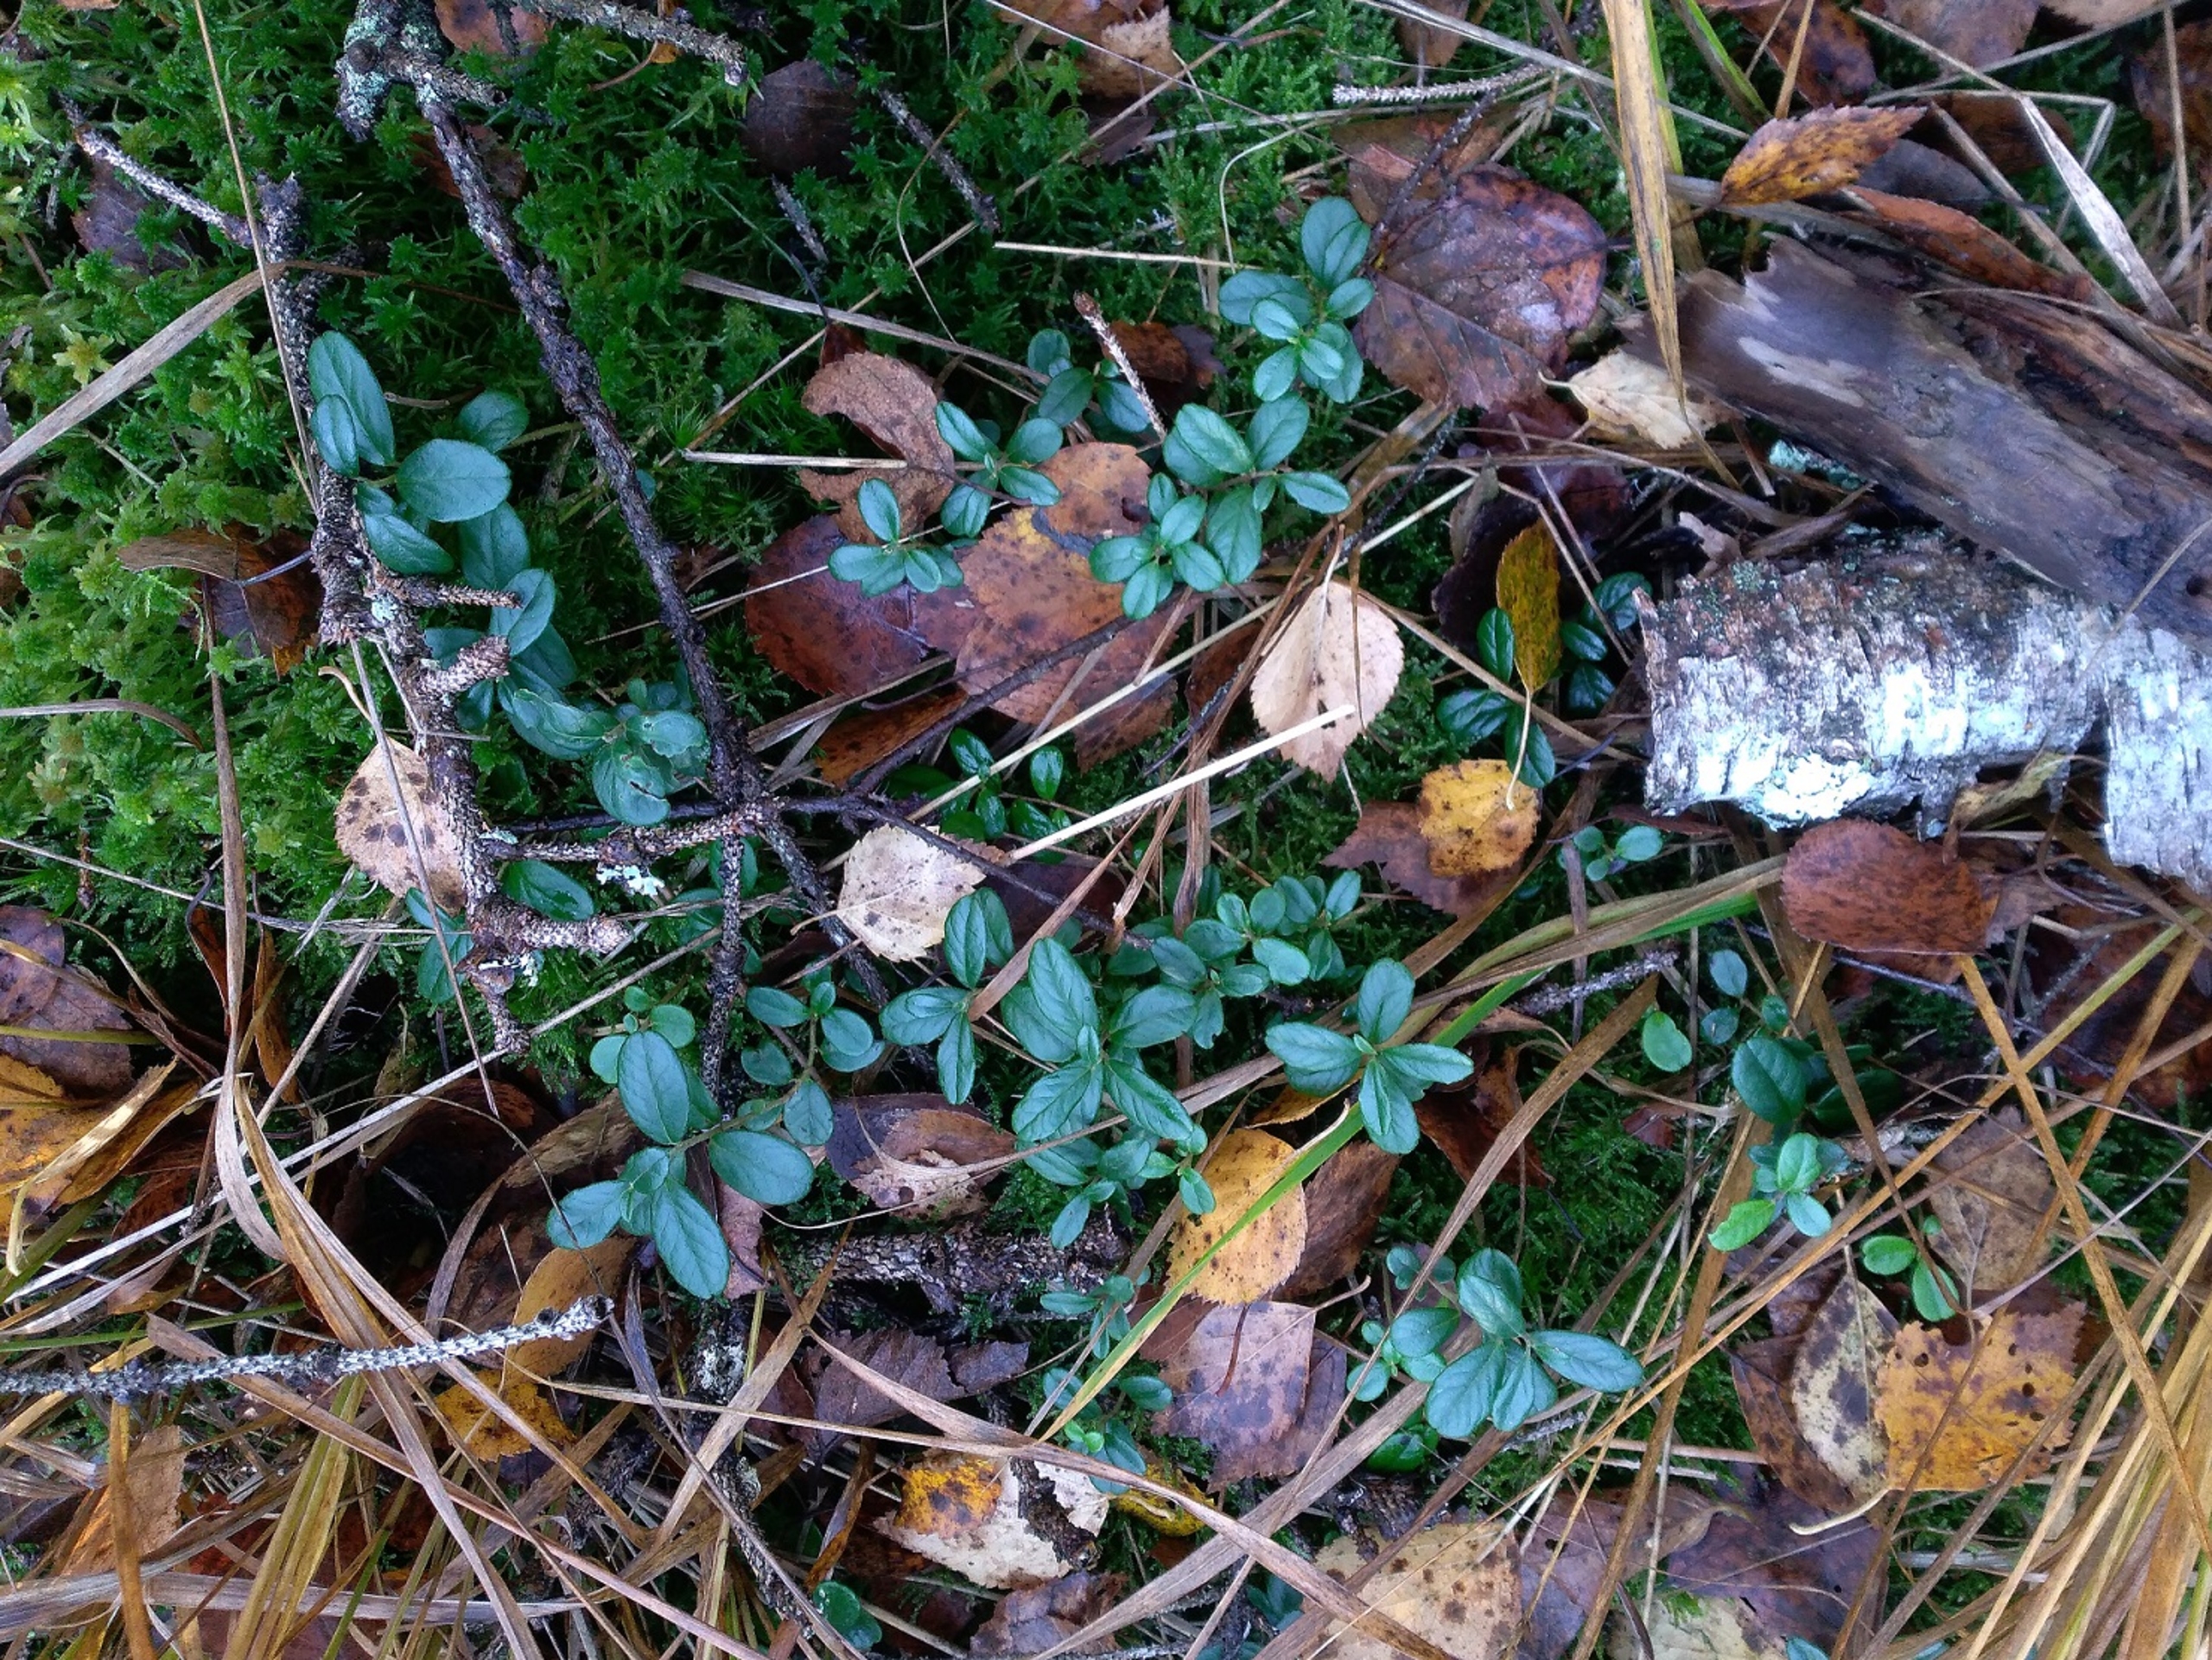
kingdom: Plantae
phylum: Tracheophyta
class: Magnoliopsida
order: Ericales
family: Ericaceae
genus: Vaccinium
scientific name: Vaccinium vitis-idaea
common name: Tyttebær
